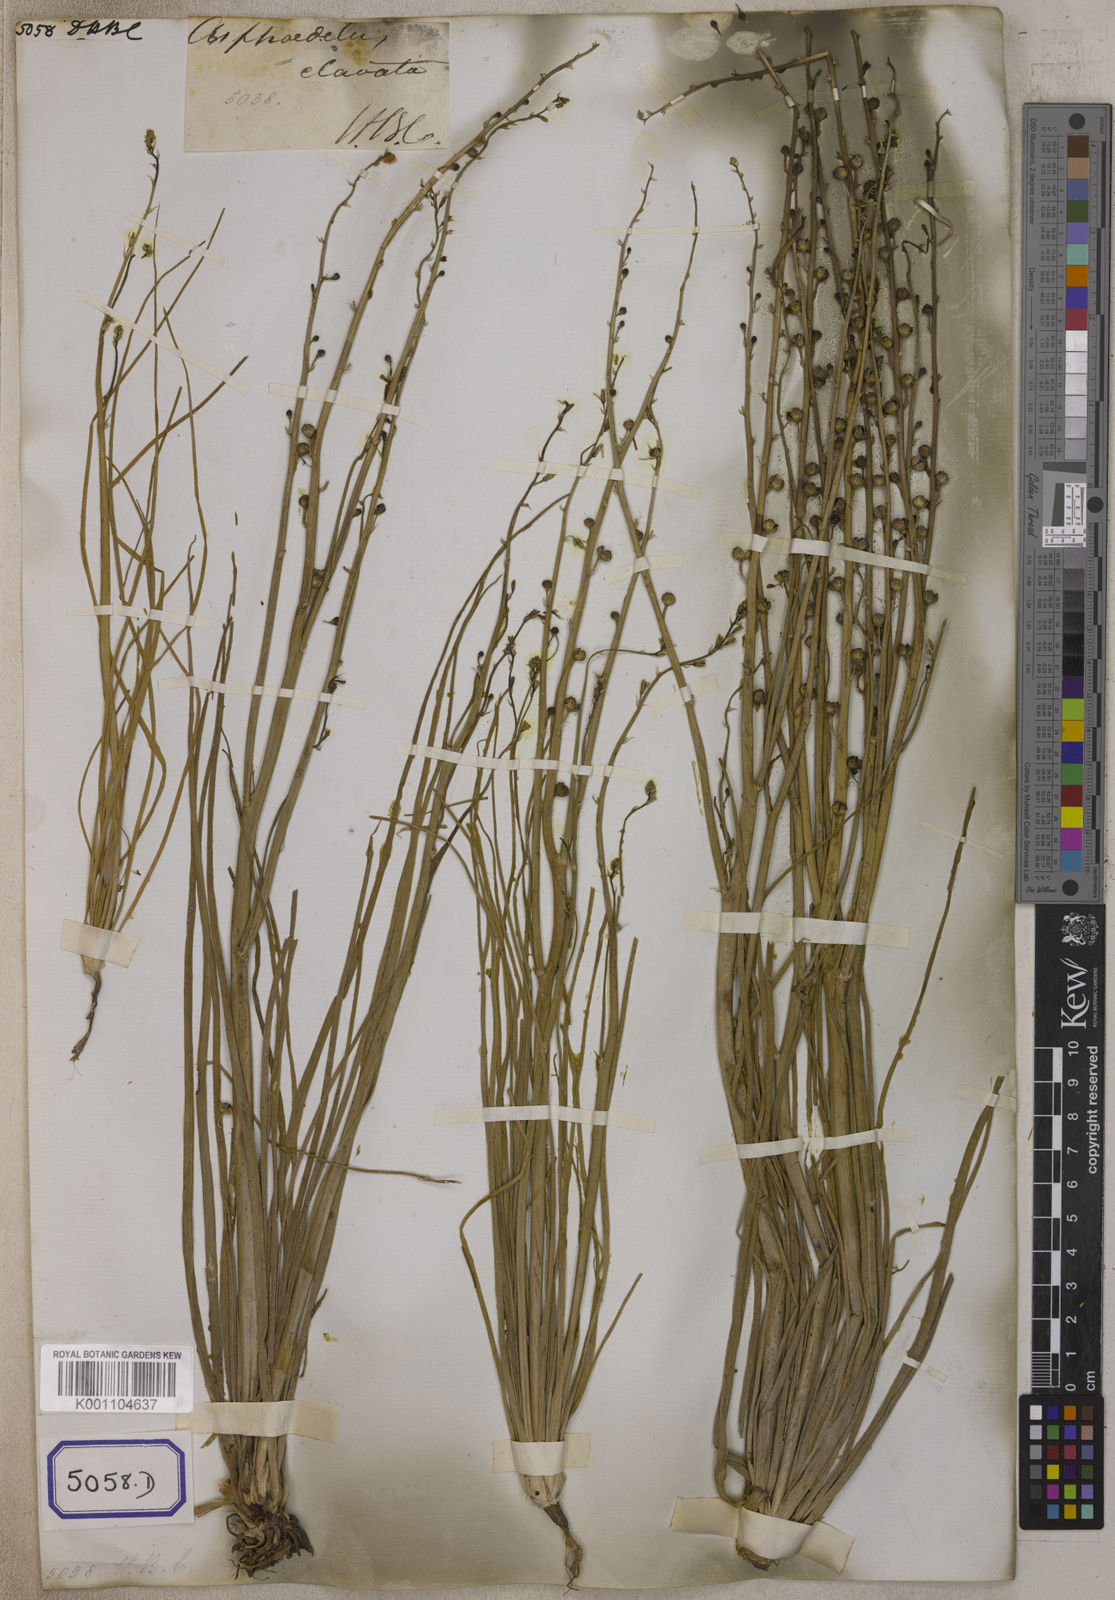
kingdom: Plantae
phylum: Tracheophyta
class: Liliopsida
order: Asparagales
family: Asphodelaceae
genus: Asphodelus
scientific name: Asphodelus
